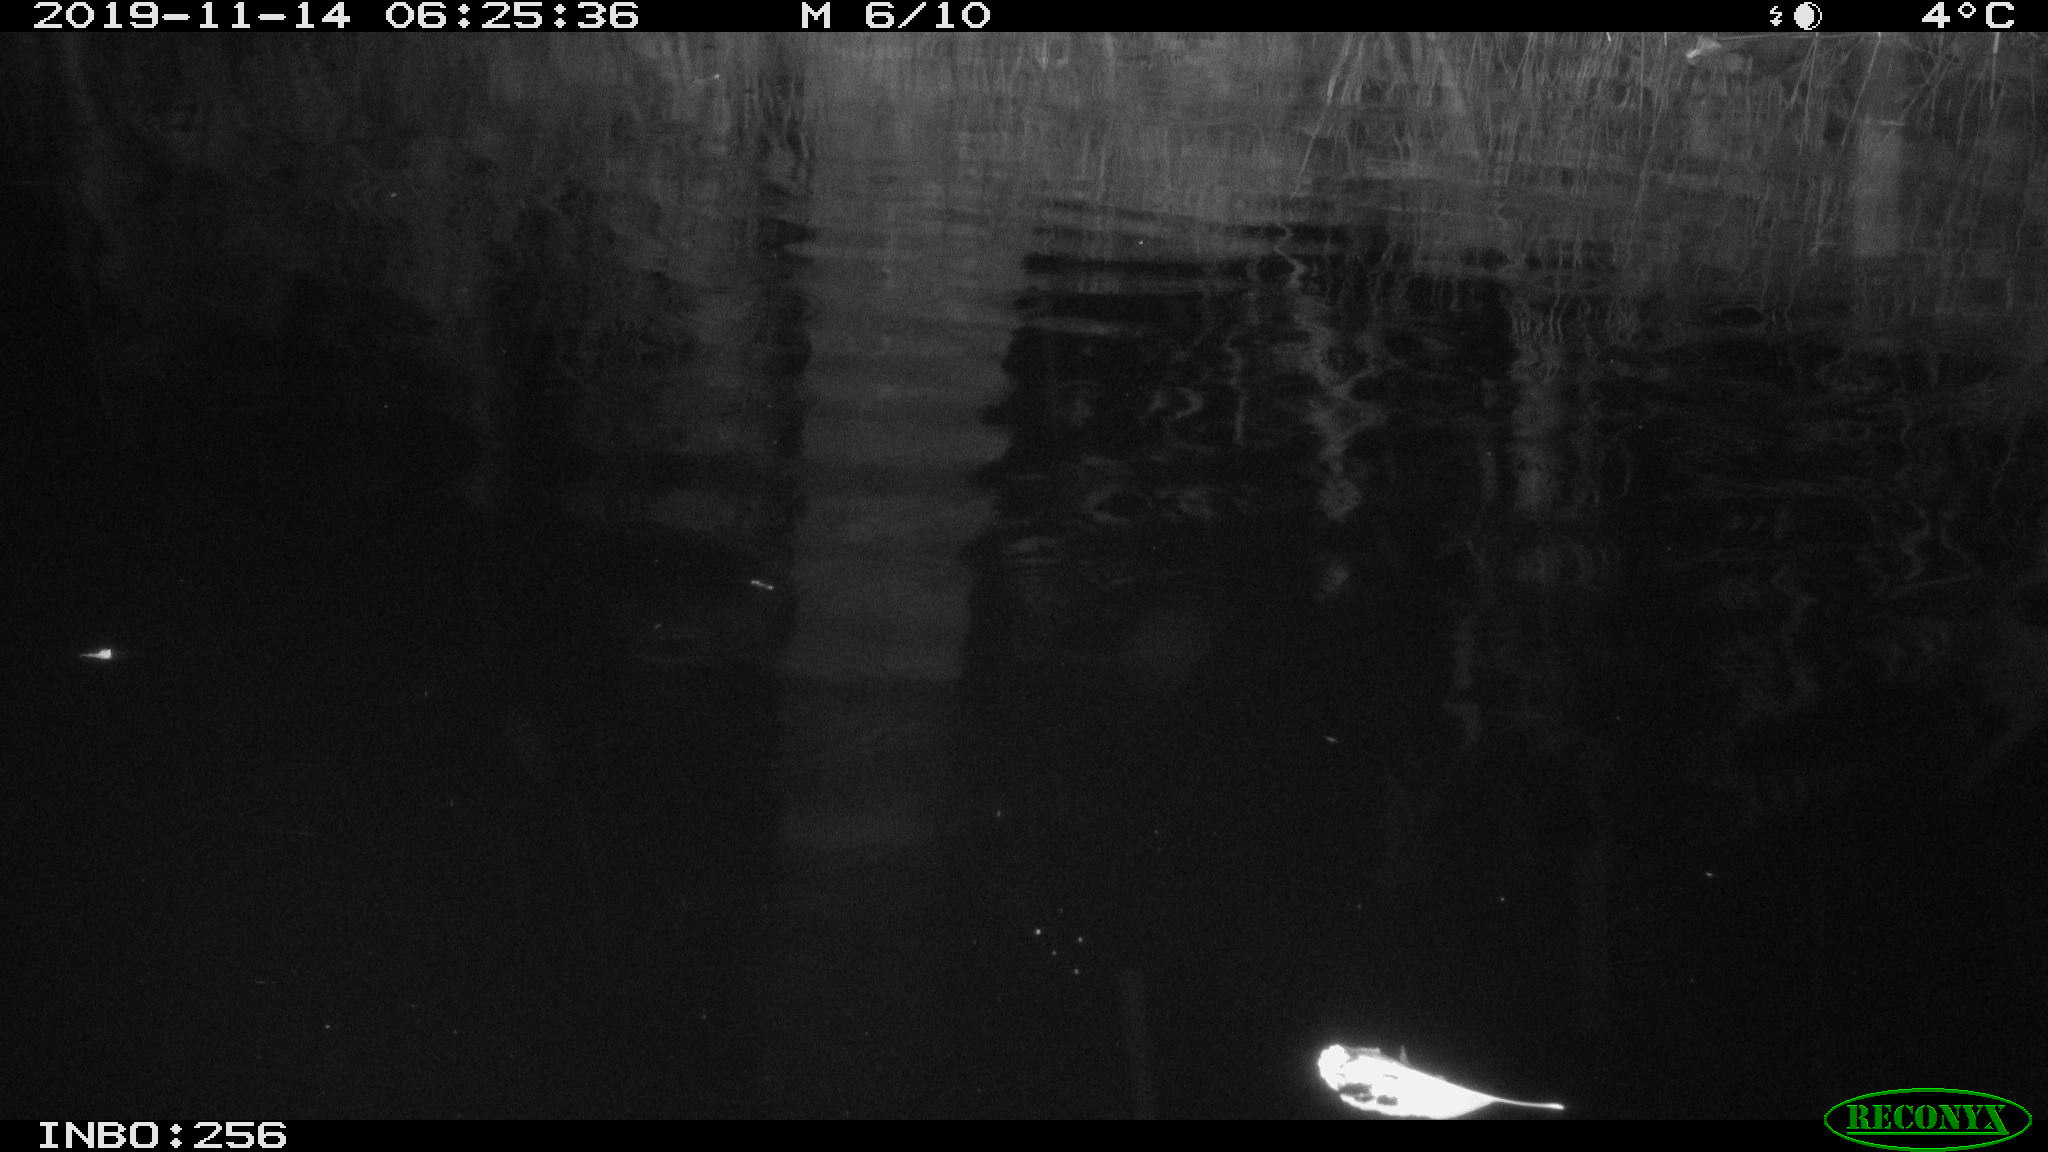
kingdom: Animalia
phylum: Chordata
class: Mammalia
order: Rodentia
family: Muridae
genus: Rattus
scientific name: Rattus norvegicus
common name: Brown rat
